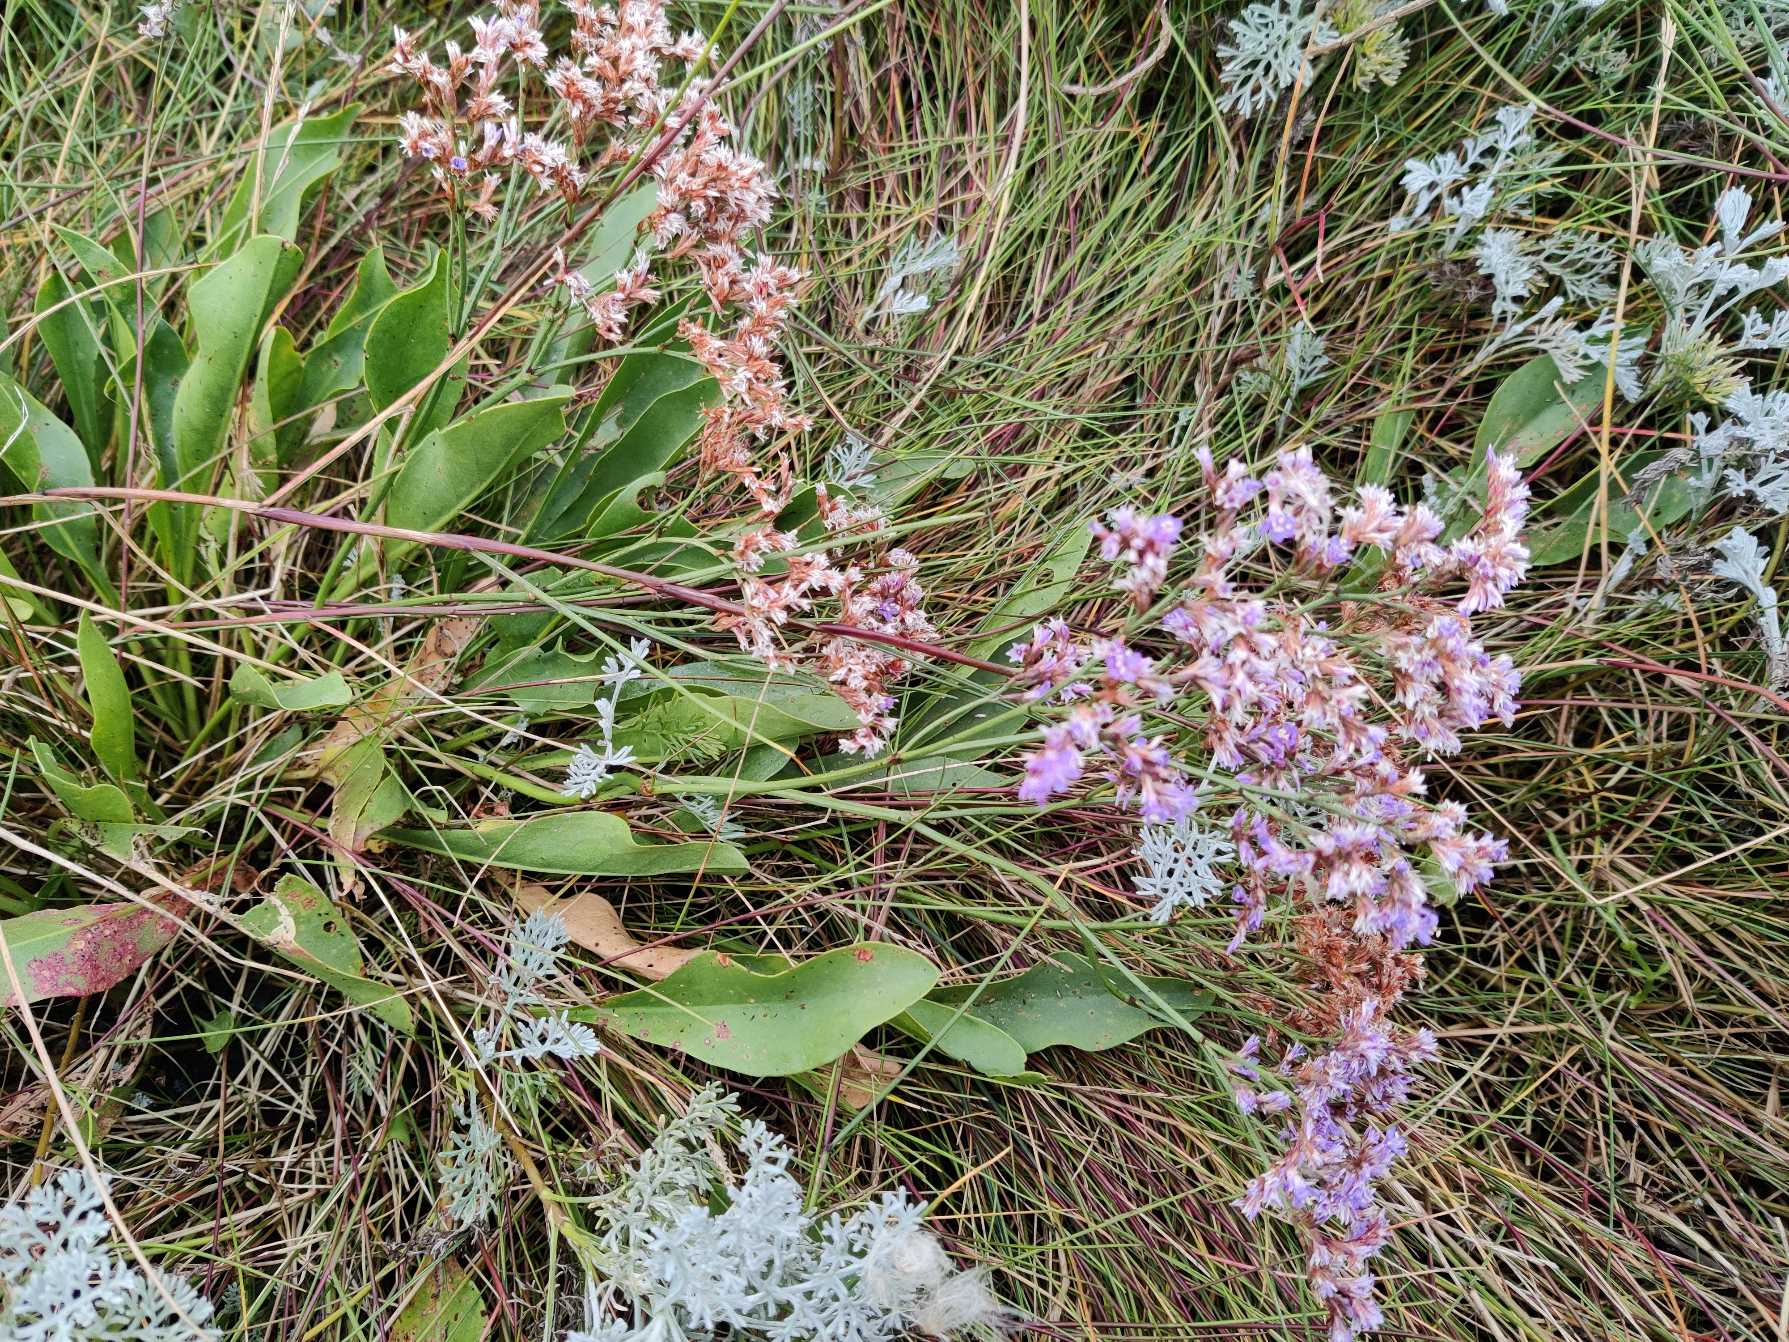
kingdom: Plantae
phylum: Tracheophyta
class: Magnoliopsida
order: Caryophyllales
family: Plumbaginaceae
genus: Limonium
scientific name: Limonium
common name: Lav hindebæger × tætblomstret hindebæger
